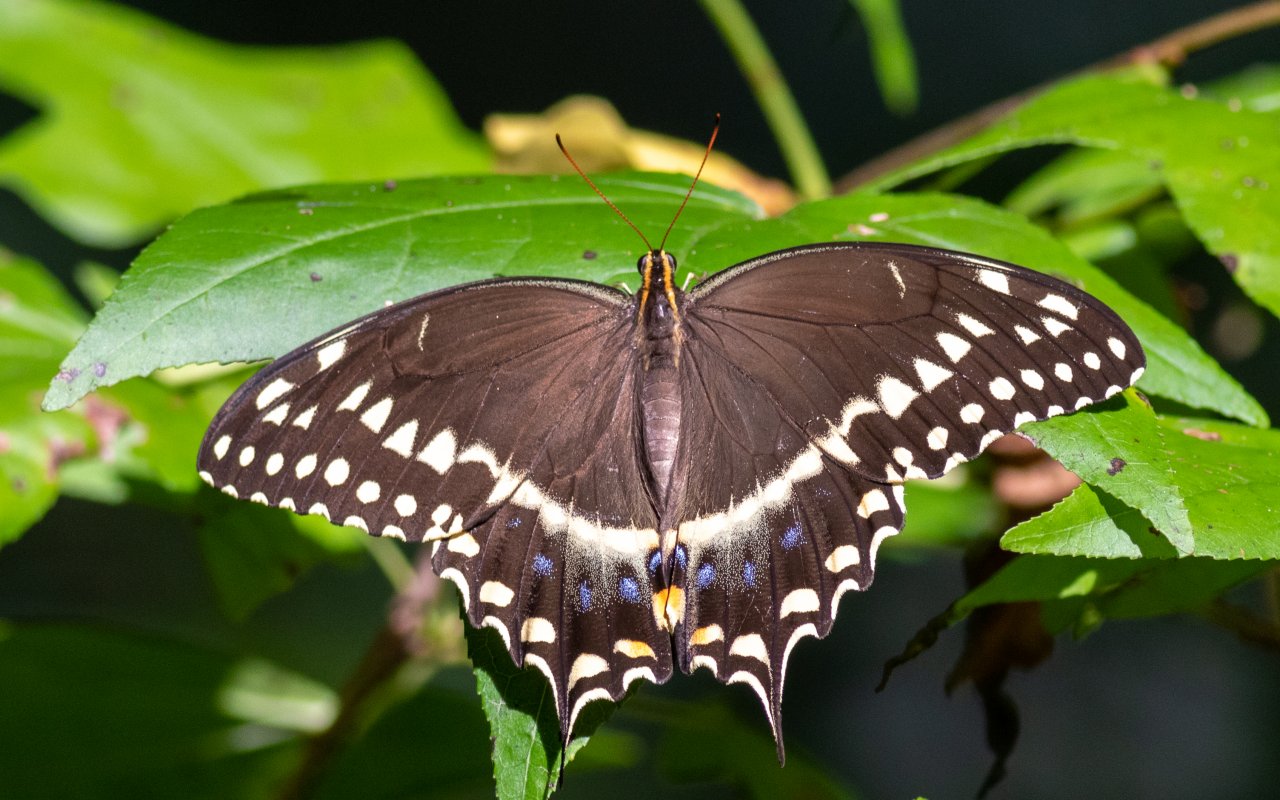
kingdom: Animalia
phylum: Arthropoda
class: Insecta
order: Lepidoptera
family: Papilionidae
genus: Pterourus
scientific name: Pterourus palamedes
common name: Palamedes Swallowtail
